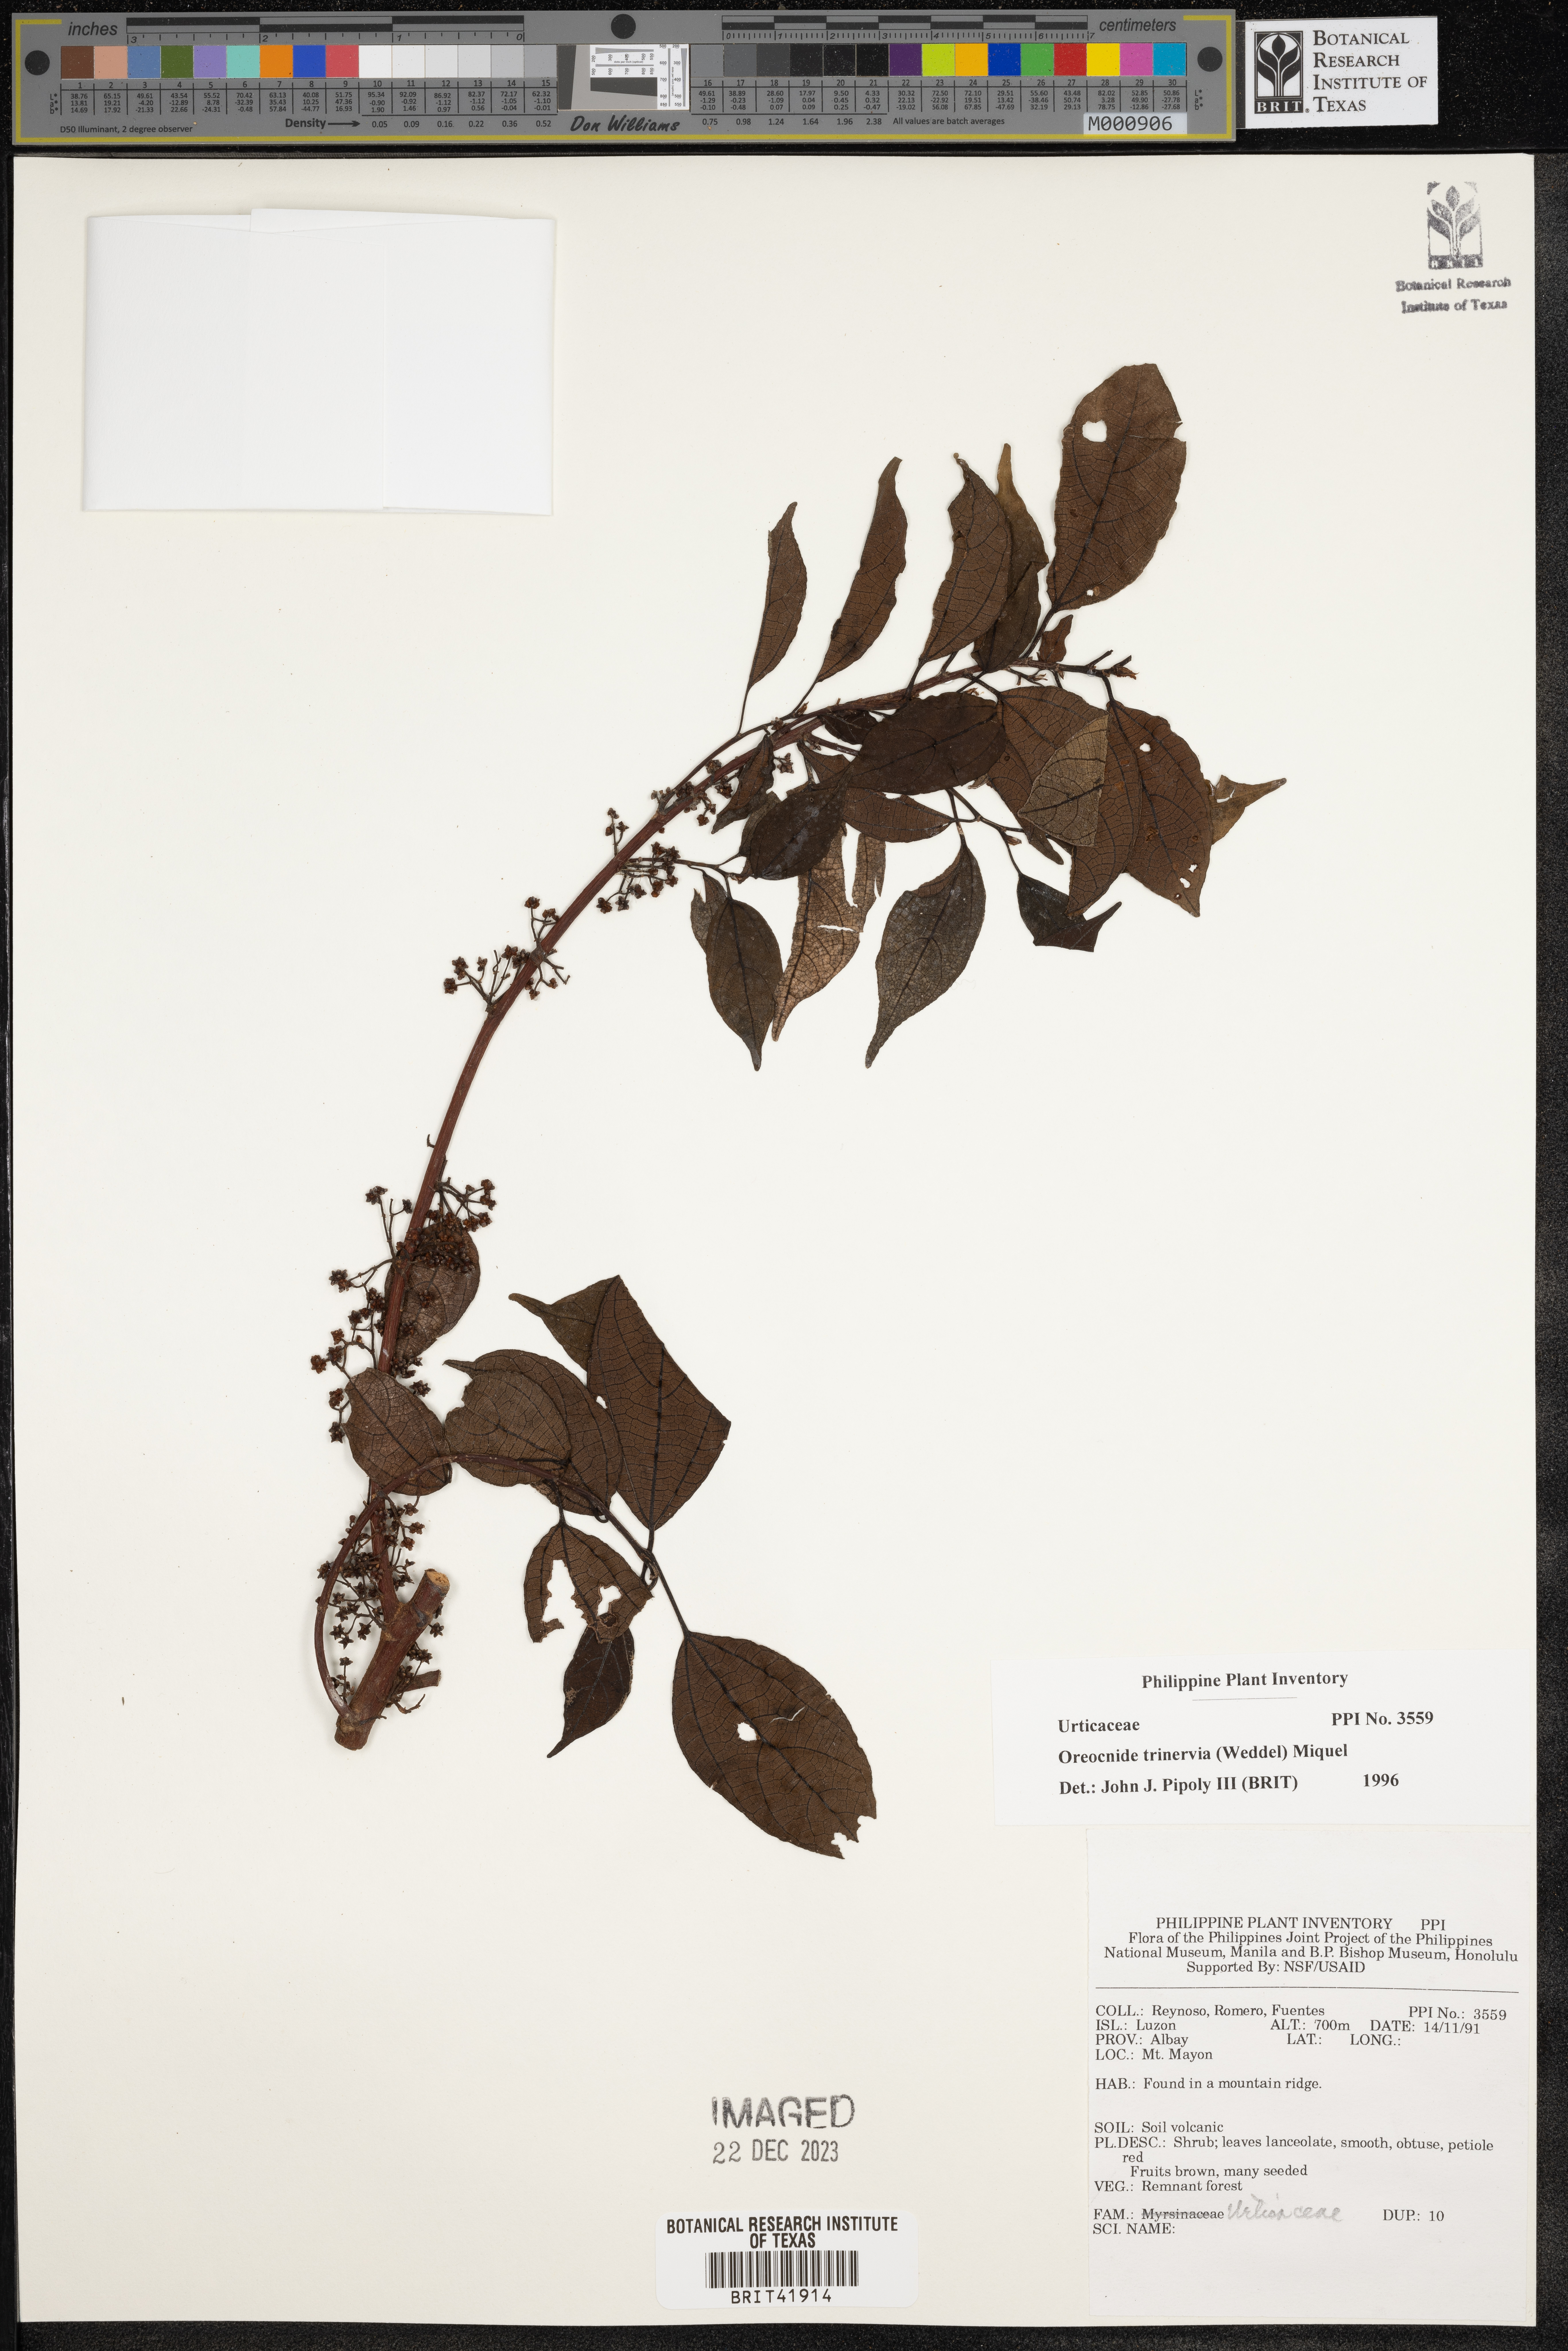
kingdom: Plantae
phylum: Tracheophyta
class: Magnoliopsida
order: Rosales
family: Urticaceae
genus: Oreocnide
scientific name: Oreocnide trinervis
